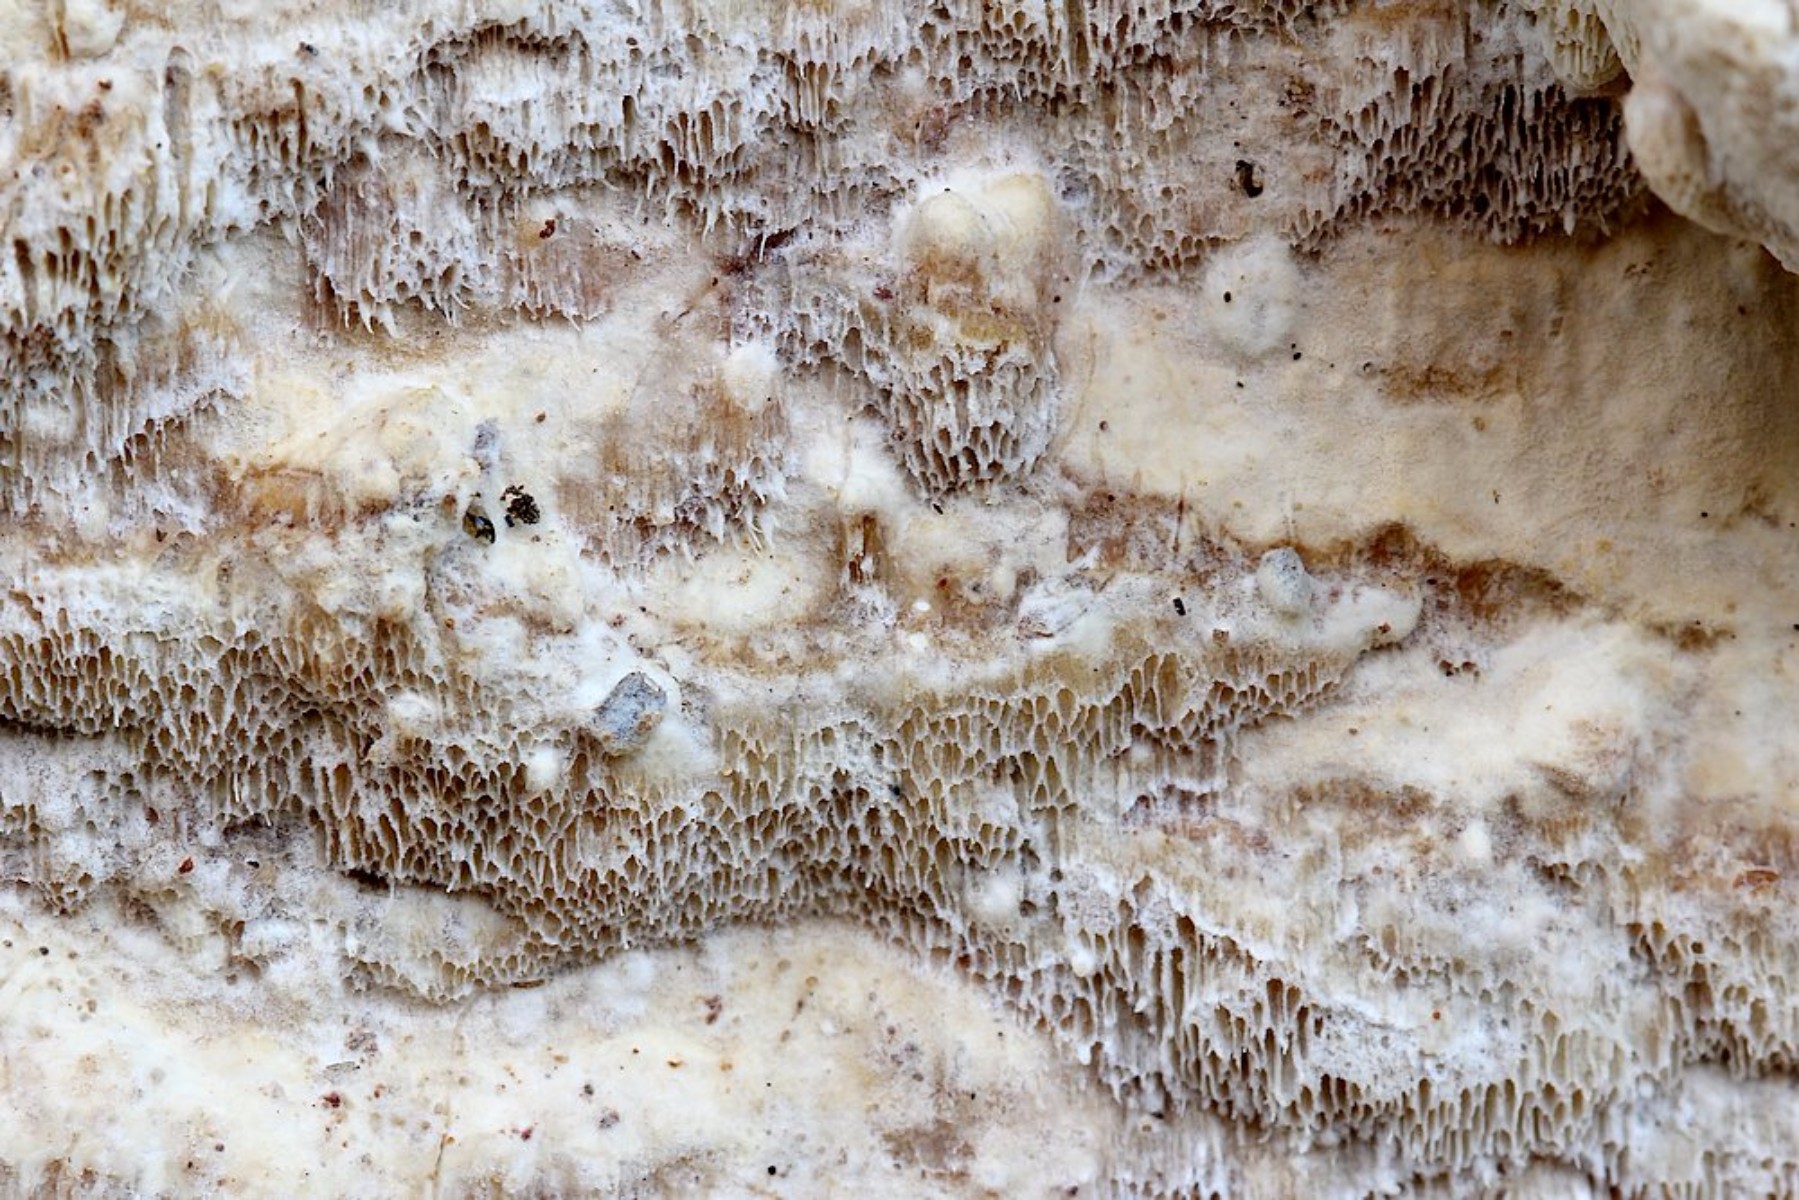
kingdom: Fungi
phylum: Basidiomycota
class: Agaricomycetes
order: Polyporales
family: Irpicaceae
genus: Gloeoporus
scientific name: Gloeoporus pannocinctus
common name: grøngul foldporesvamp
